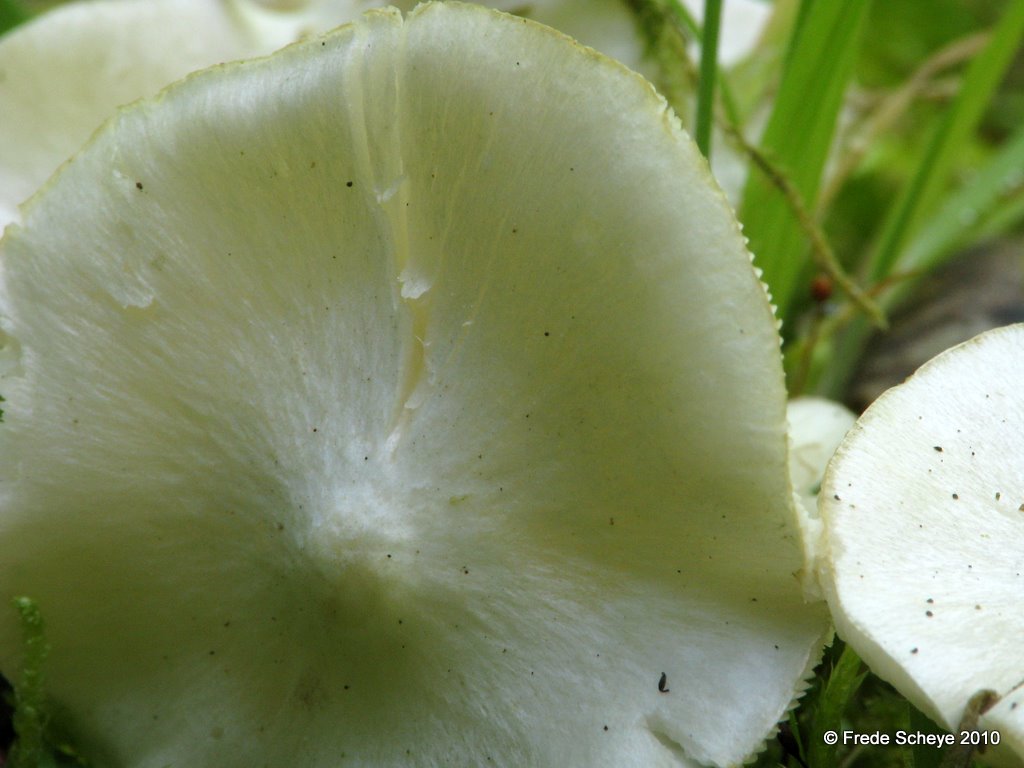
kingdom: Fungi
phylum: Basidiomycota
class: Agaricomycetes
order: Agaricales
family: Tricholomataceae
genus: Tricholoma
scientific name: Tricholoma argyraceum
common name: spids ridderhat
